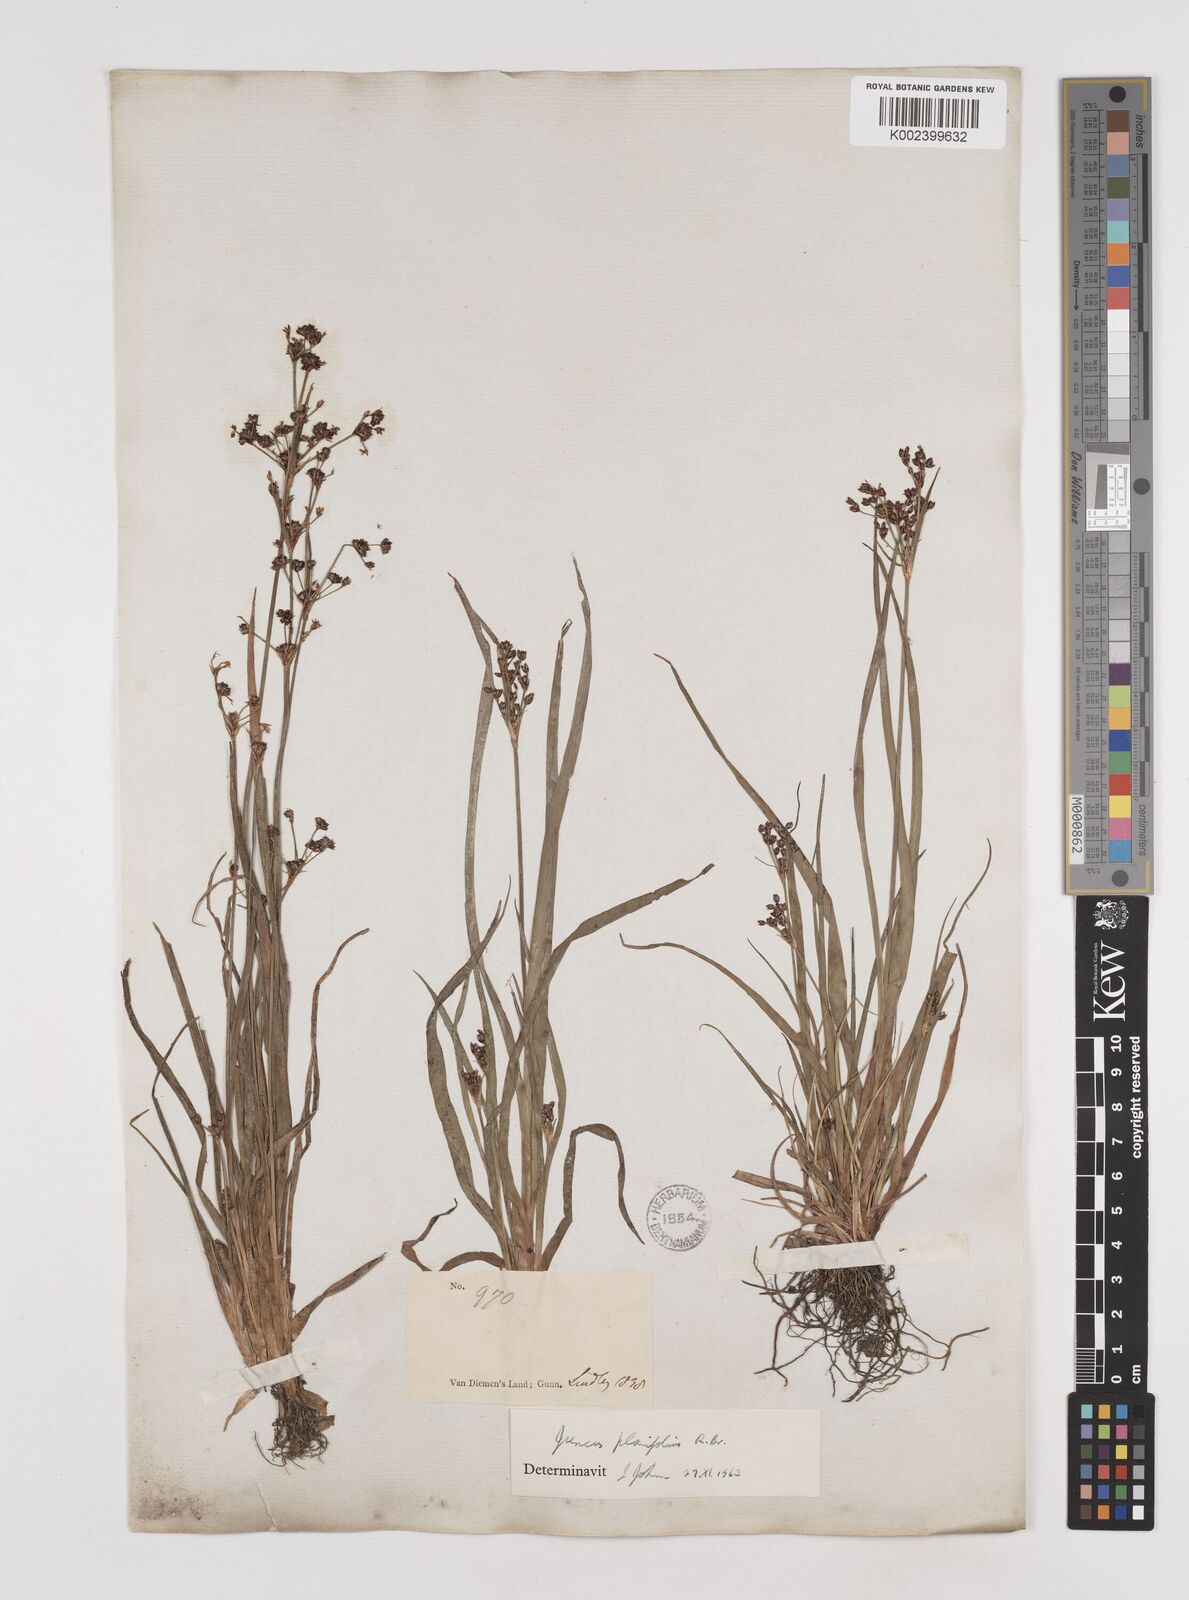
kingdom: Plantae
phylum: Tracheophyta
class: Liliopsida
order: Poales
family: Juncaceae
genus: Juncus
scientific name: Juncus planifolius
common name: Broadleaf rush
